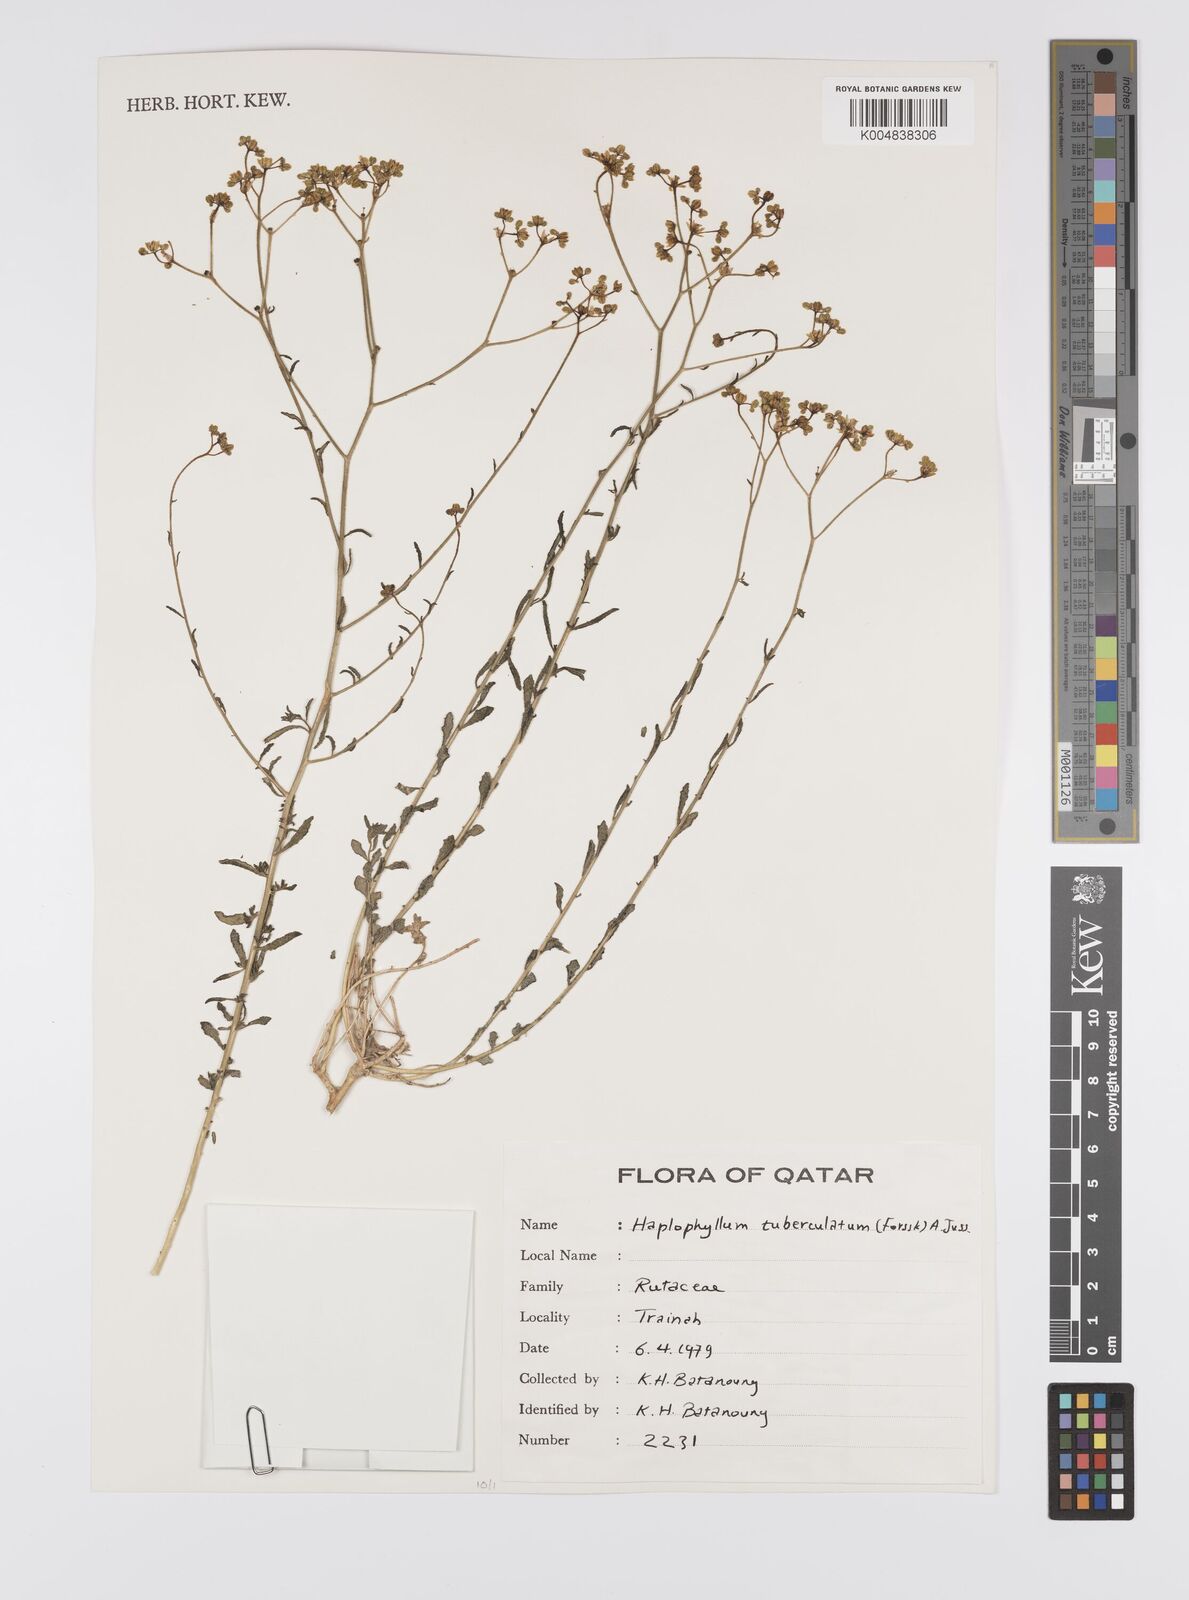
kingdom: Plantae
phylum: Tracheophyta
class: Magnoliopsida
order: Sapindales
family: Rutaceae
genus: Haplophyllum
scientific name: Haplophyllum tuberculatum
